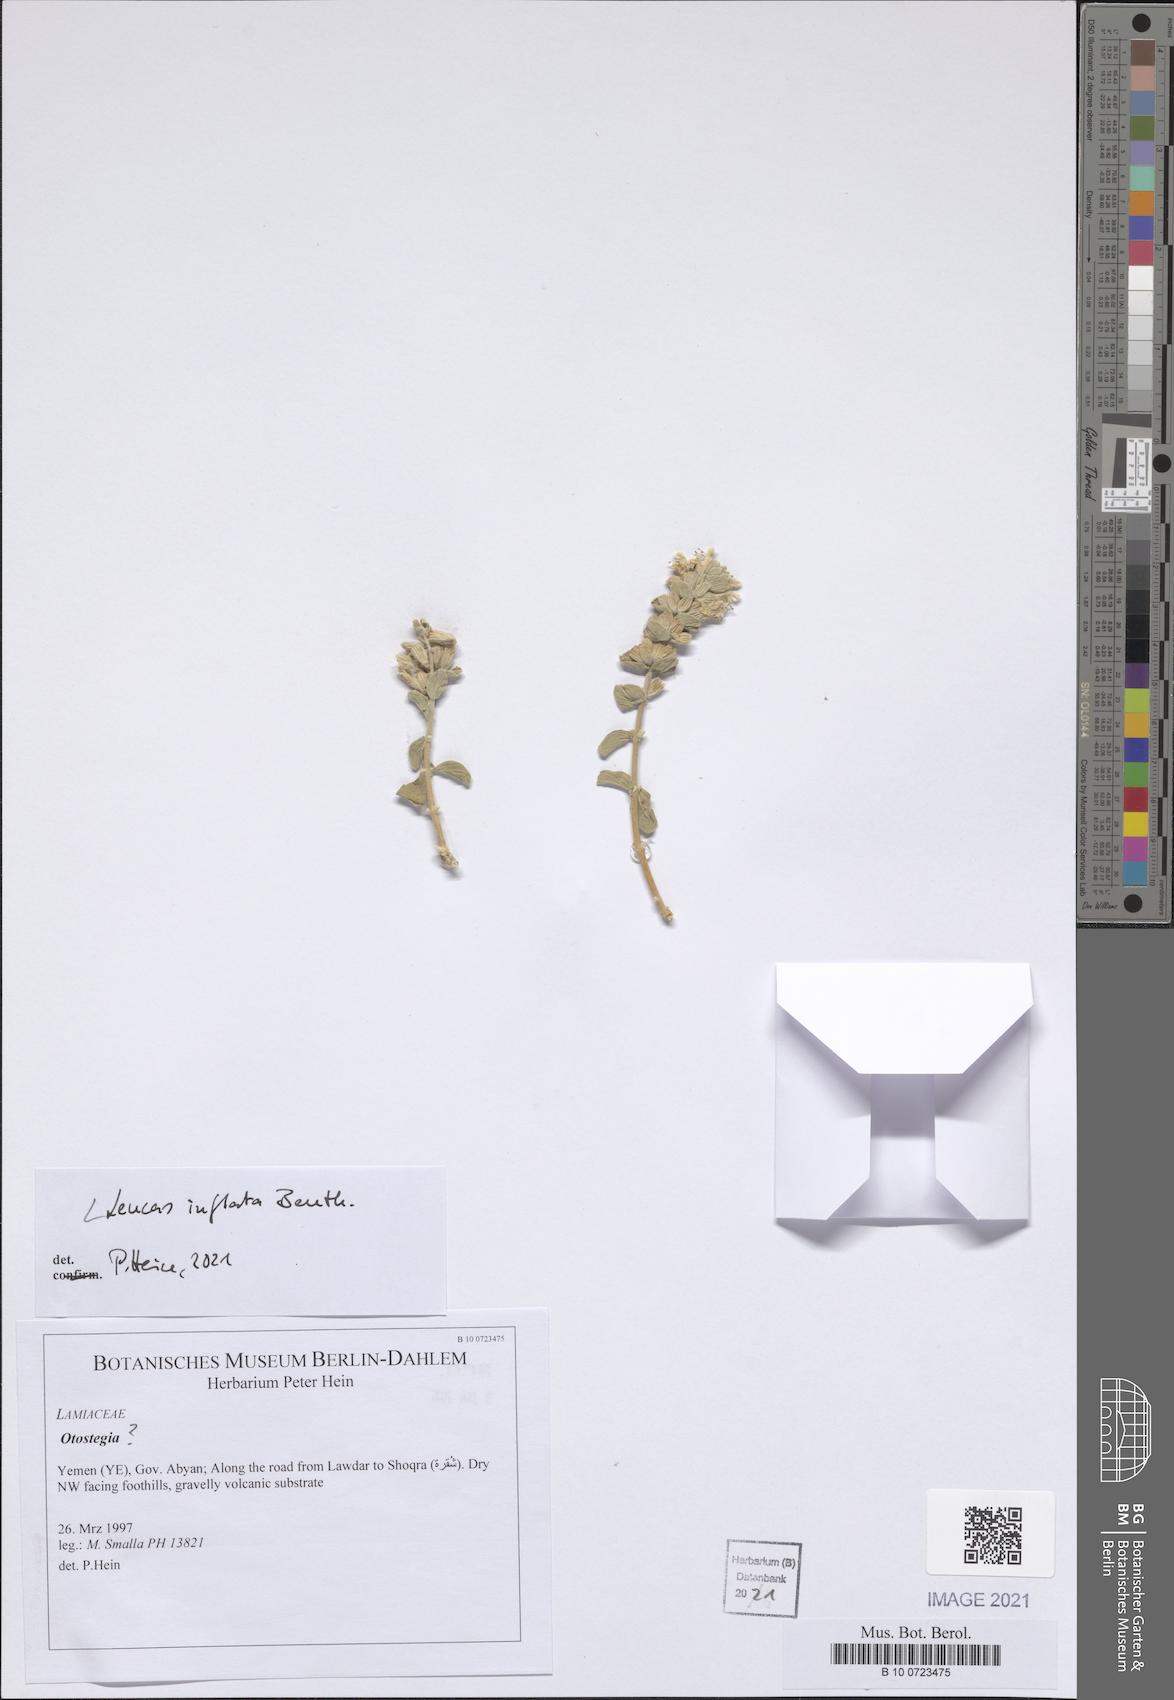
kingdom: Plantae
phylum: Tracheophyta
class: Magnoliopsida
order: Lamiales
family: Lamiaceae
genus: Leucas
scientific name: Leucas inflata
